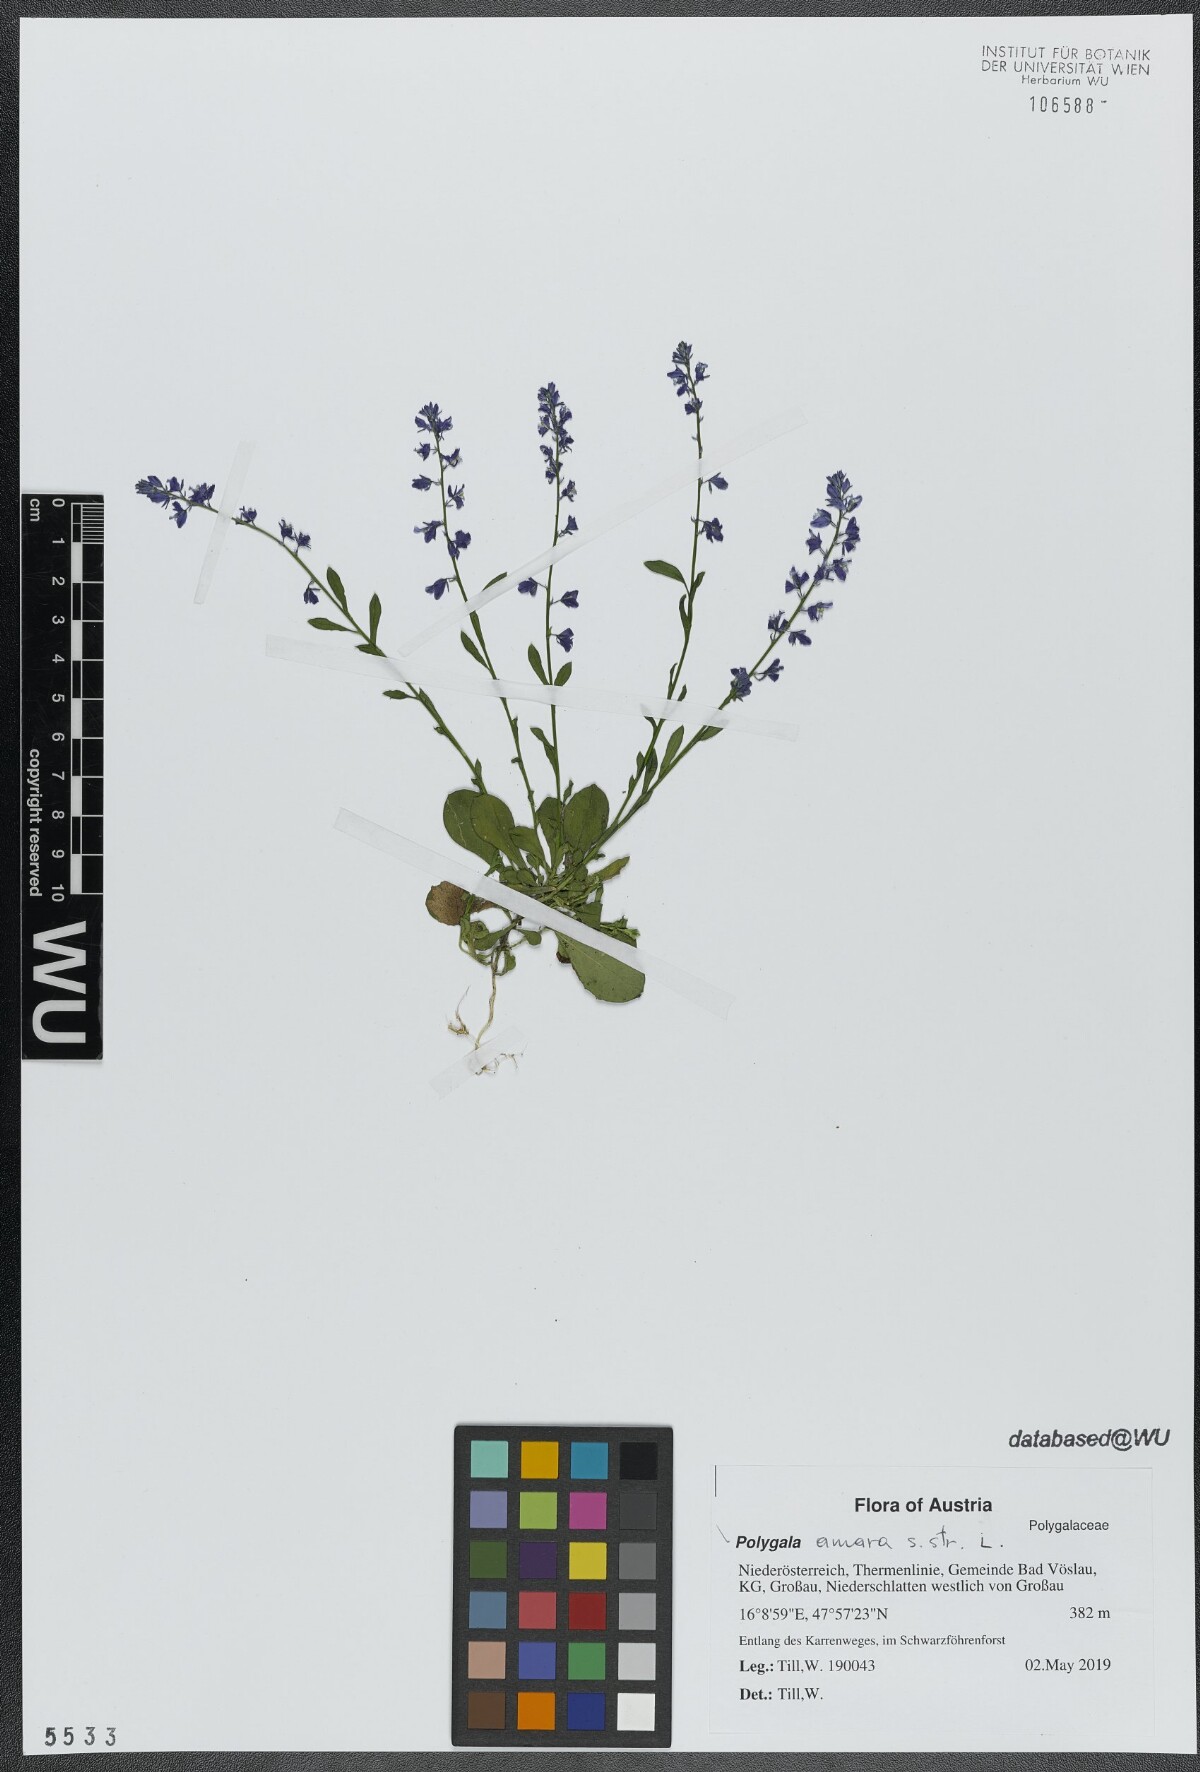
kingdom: Plantae
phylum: Tracheophyta
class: Magnoliopsida
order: Fabales
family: Polygalaceae
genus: Polygala
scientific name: Polygala amara
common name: Milkwort
